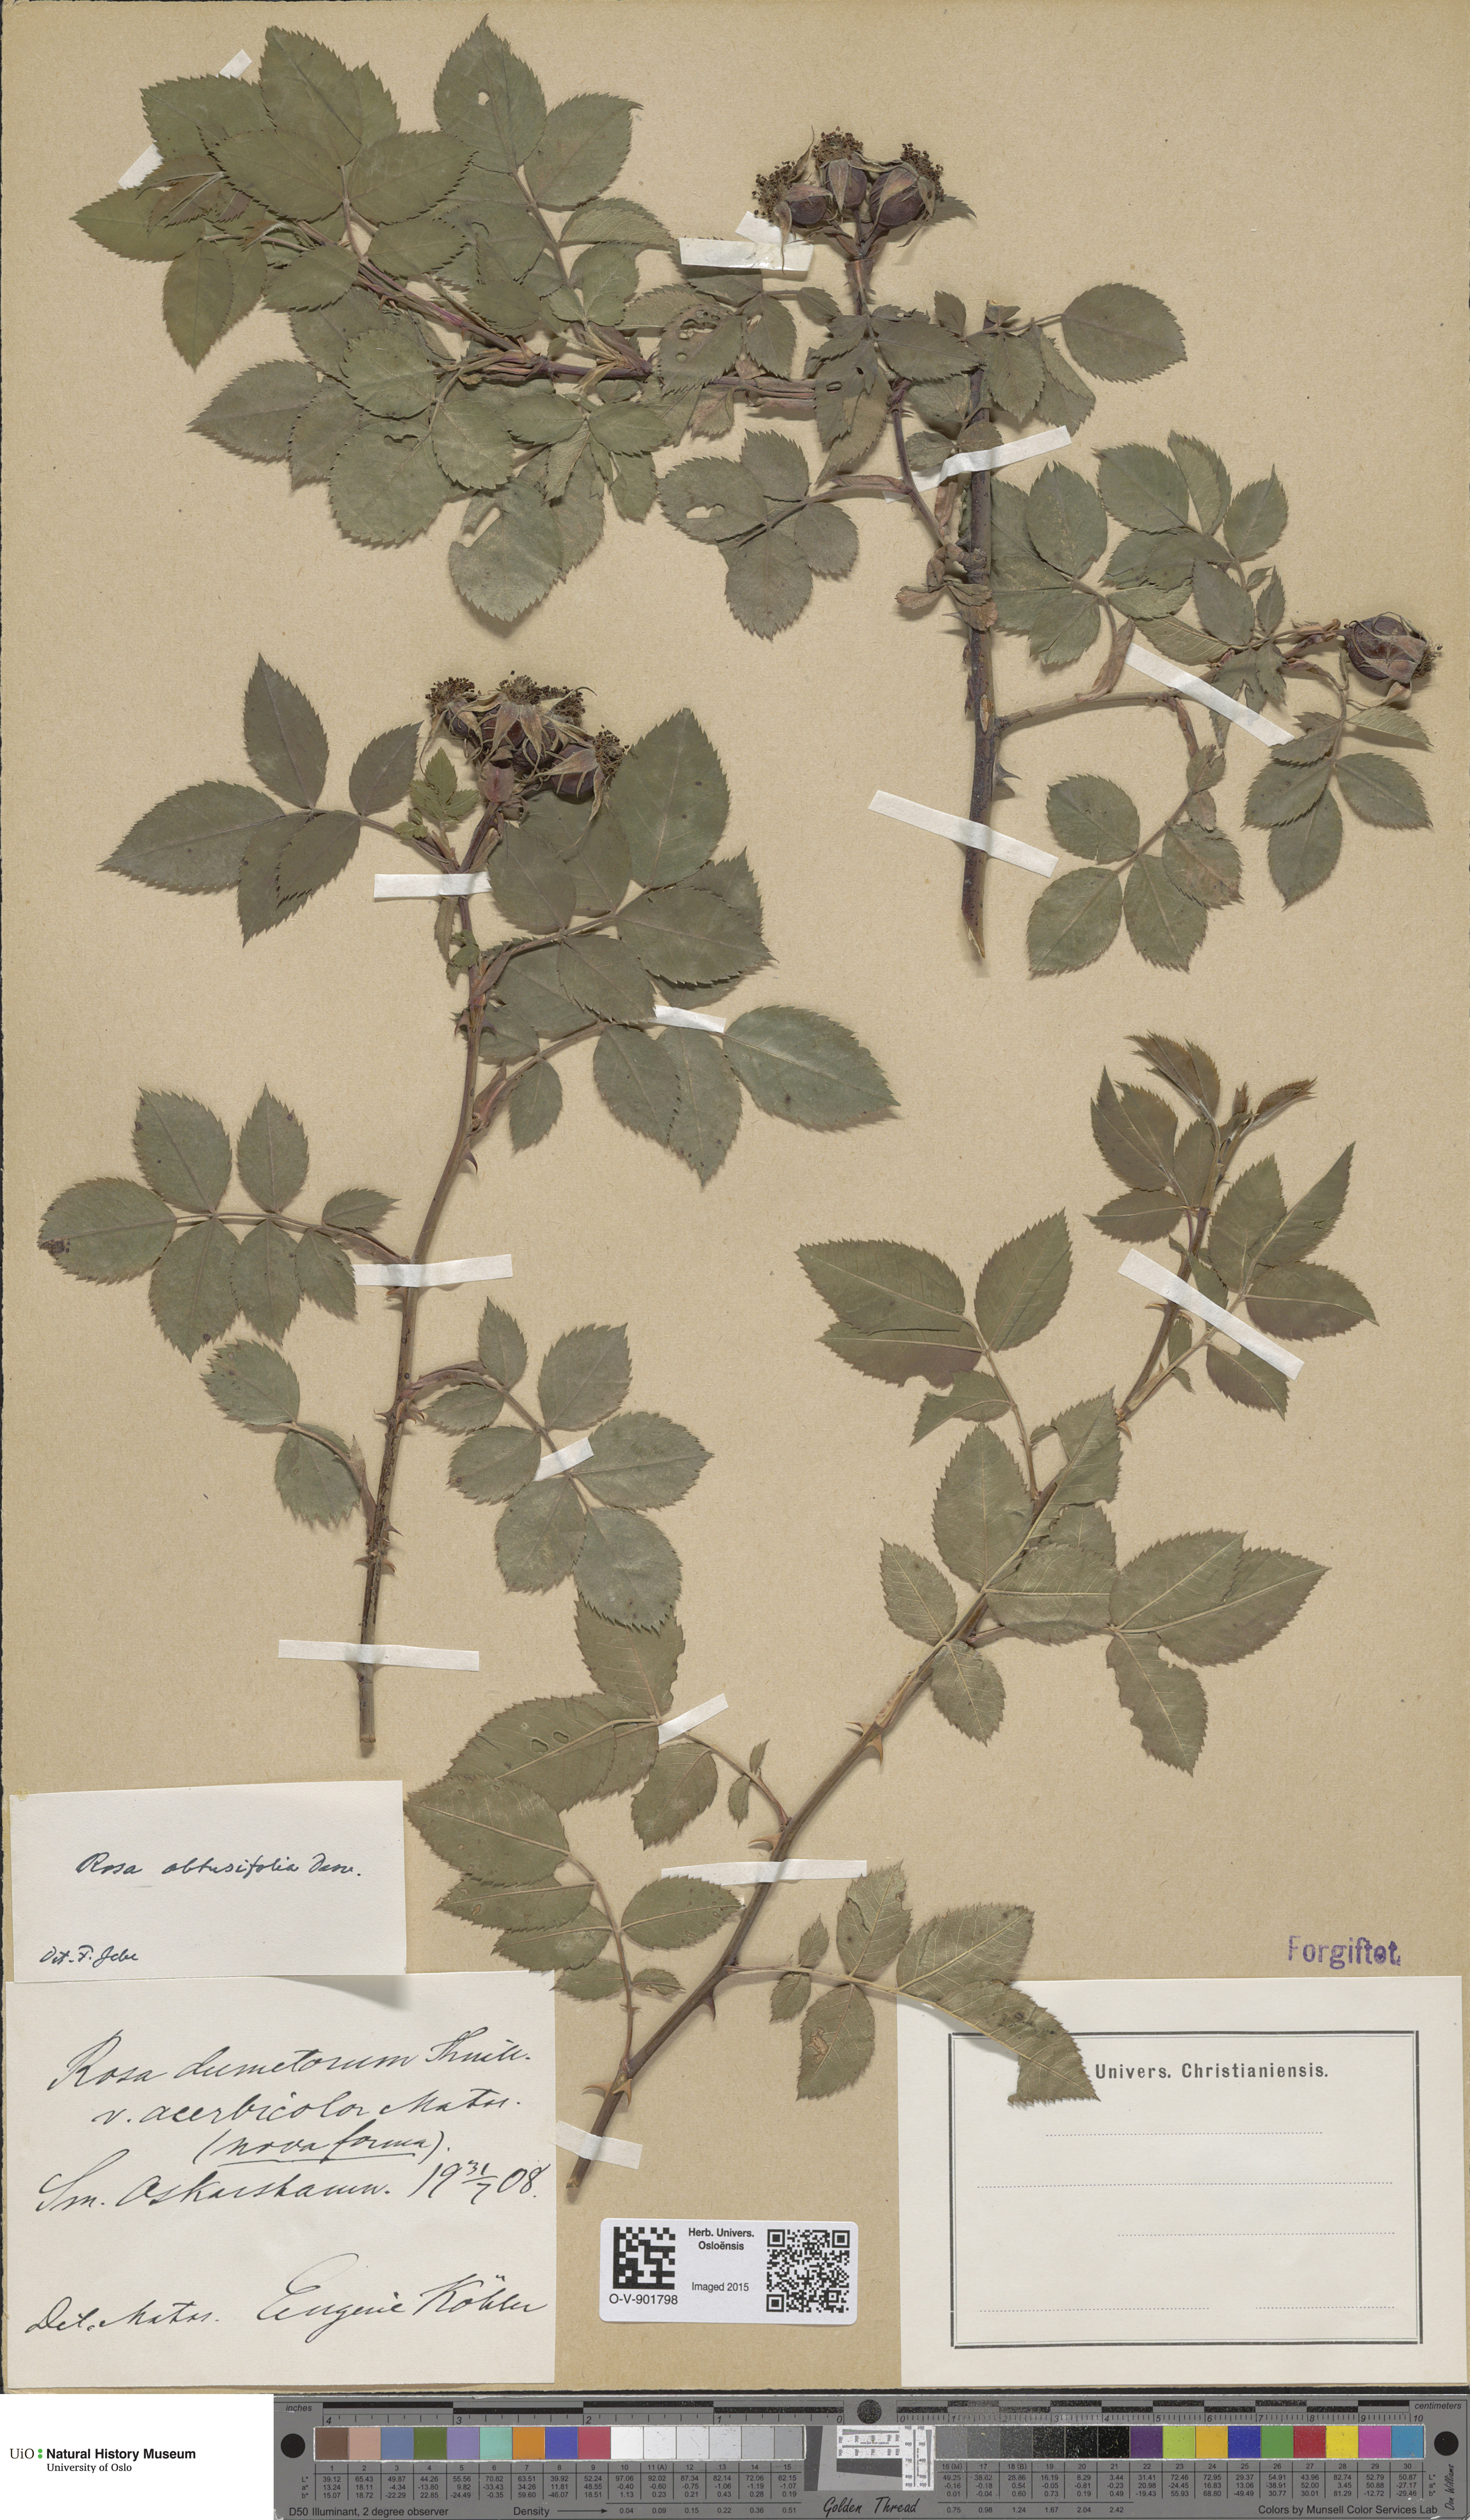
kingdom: Plantae
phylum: Tracheophyta
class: Magnoliopsida
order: Rosales
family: Rosaceae
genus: Rosa
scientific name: Rosa obtusifolia
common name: Round-leaved dog-rose
